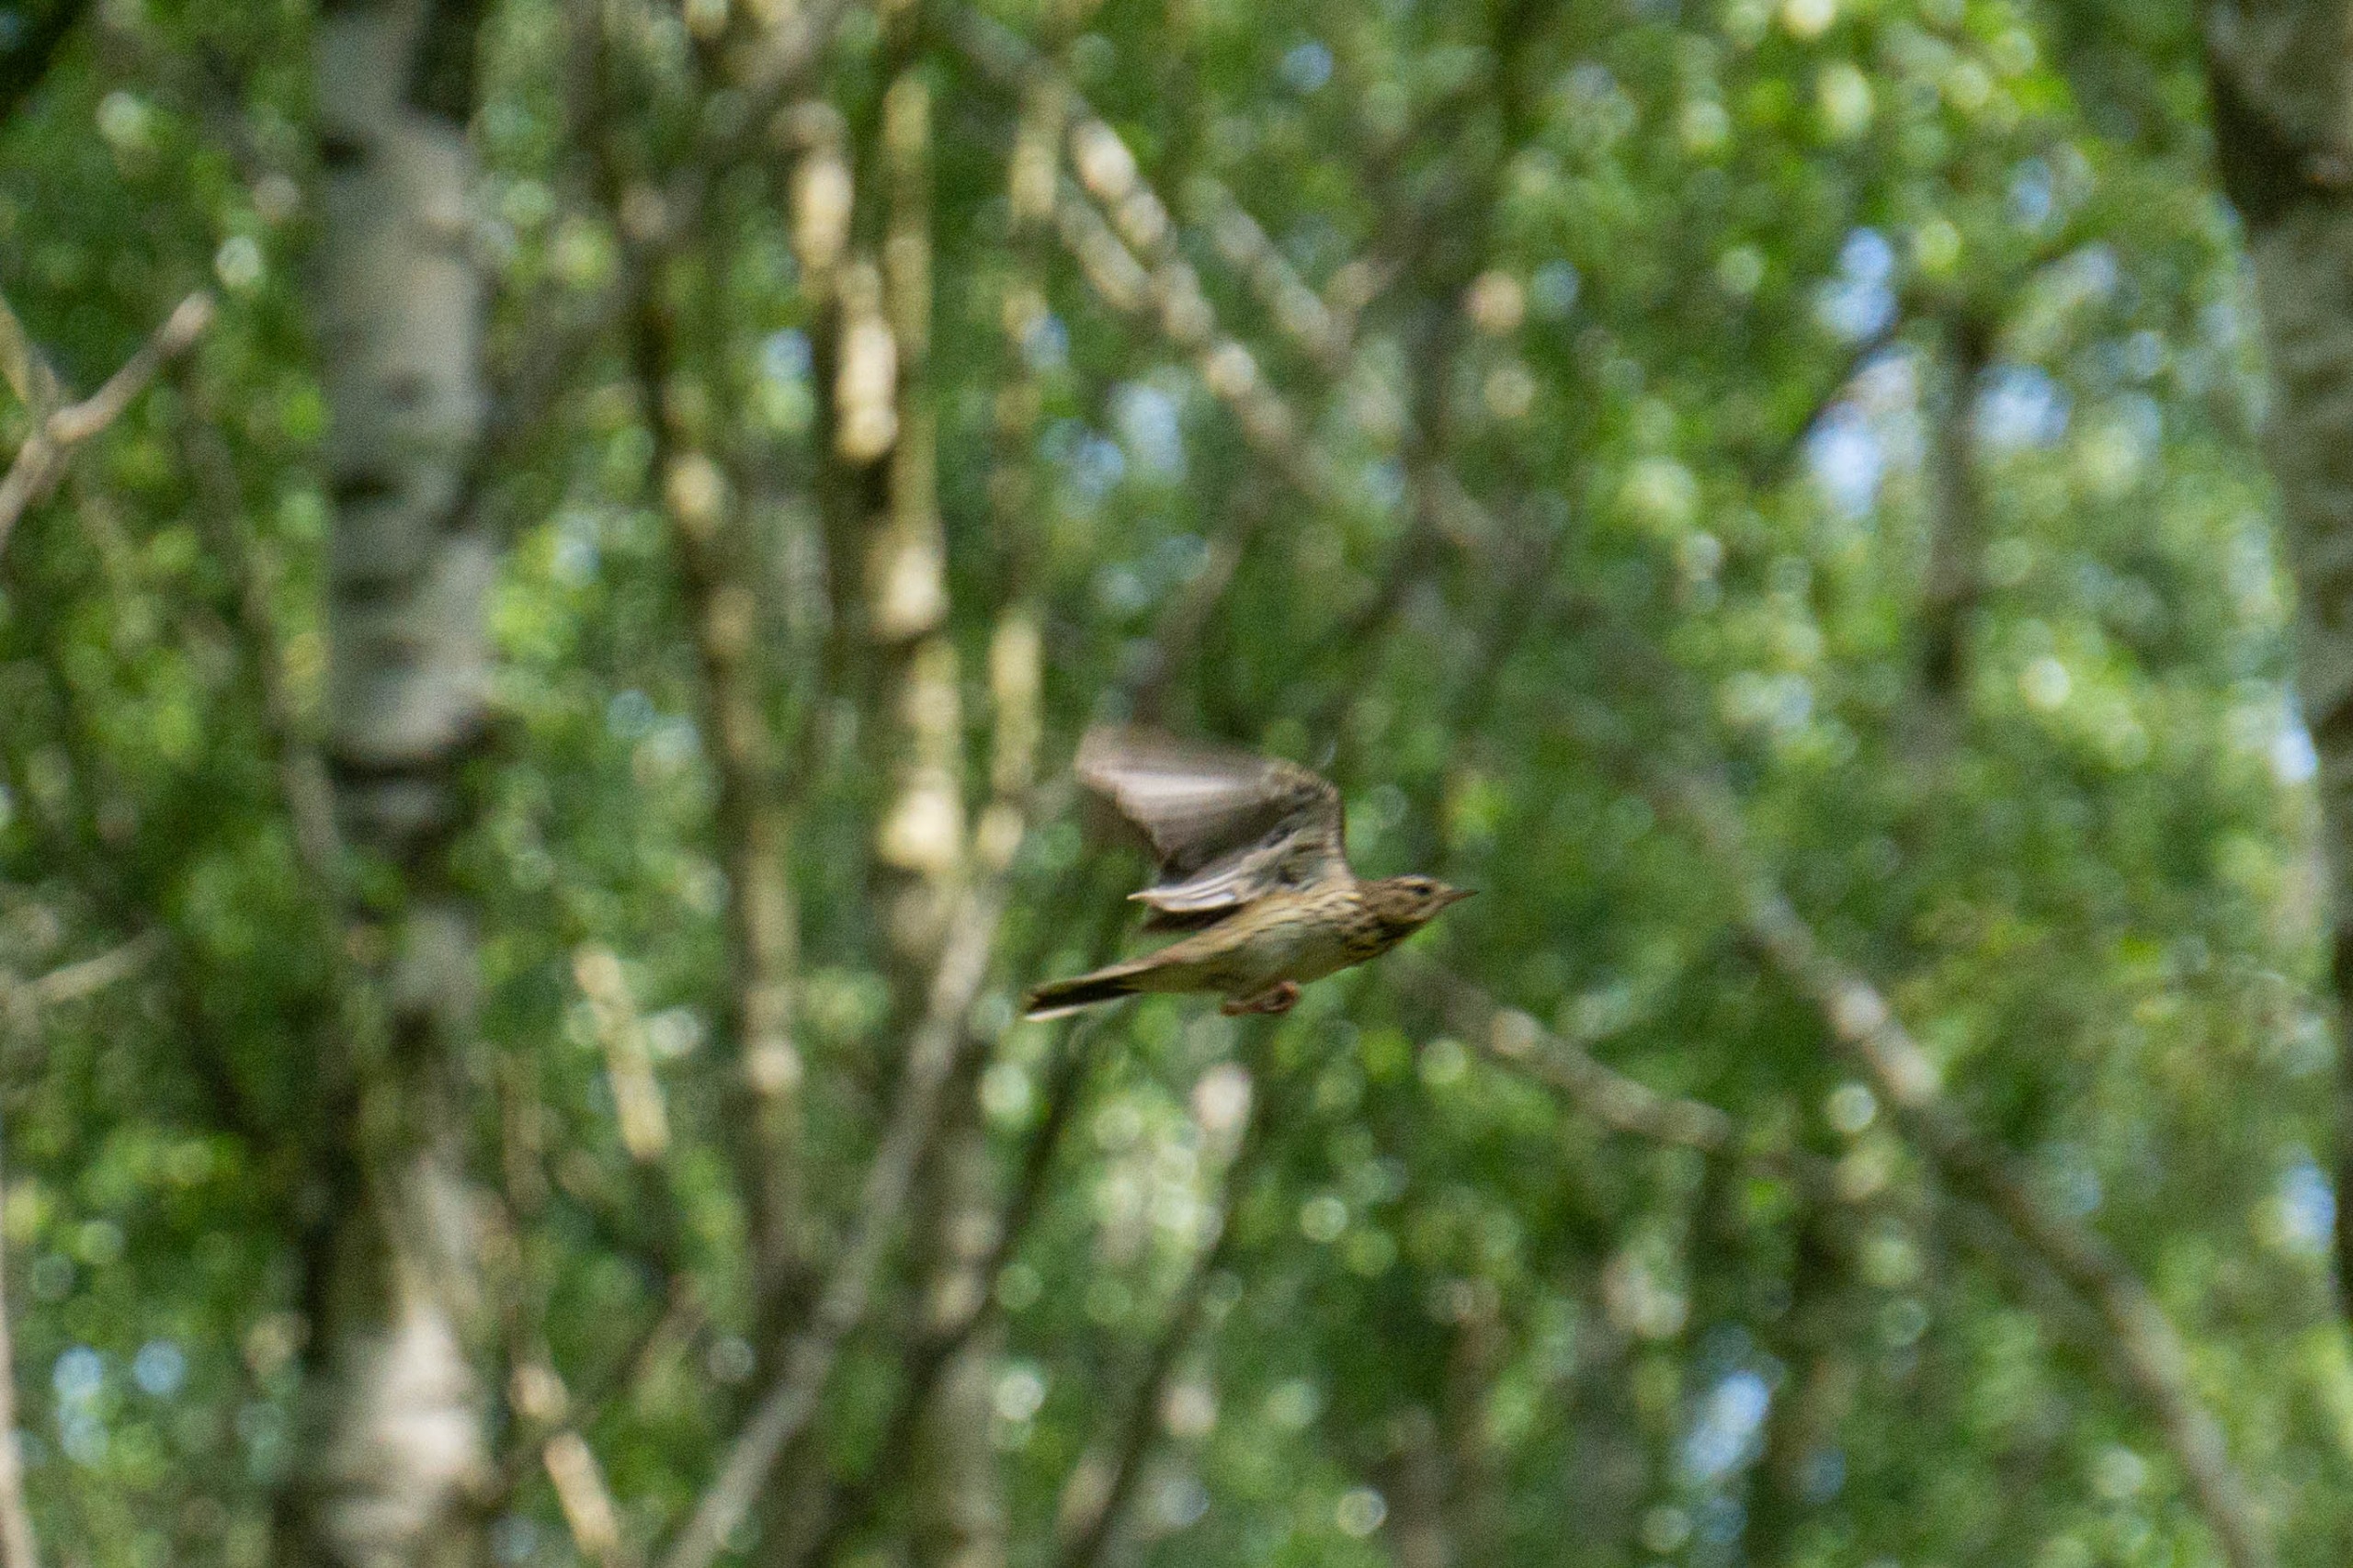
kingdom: Animalia
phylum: Chordata
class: Aves
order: Passeriformes
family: Motacillidae
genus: Anthus
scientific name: Anthus trivialis
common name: Skovpiber
